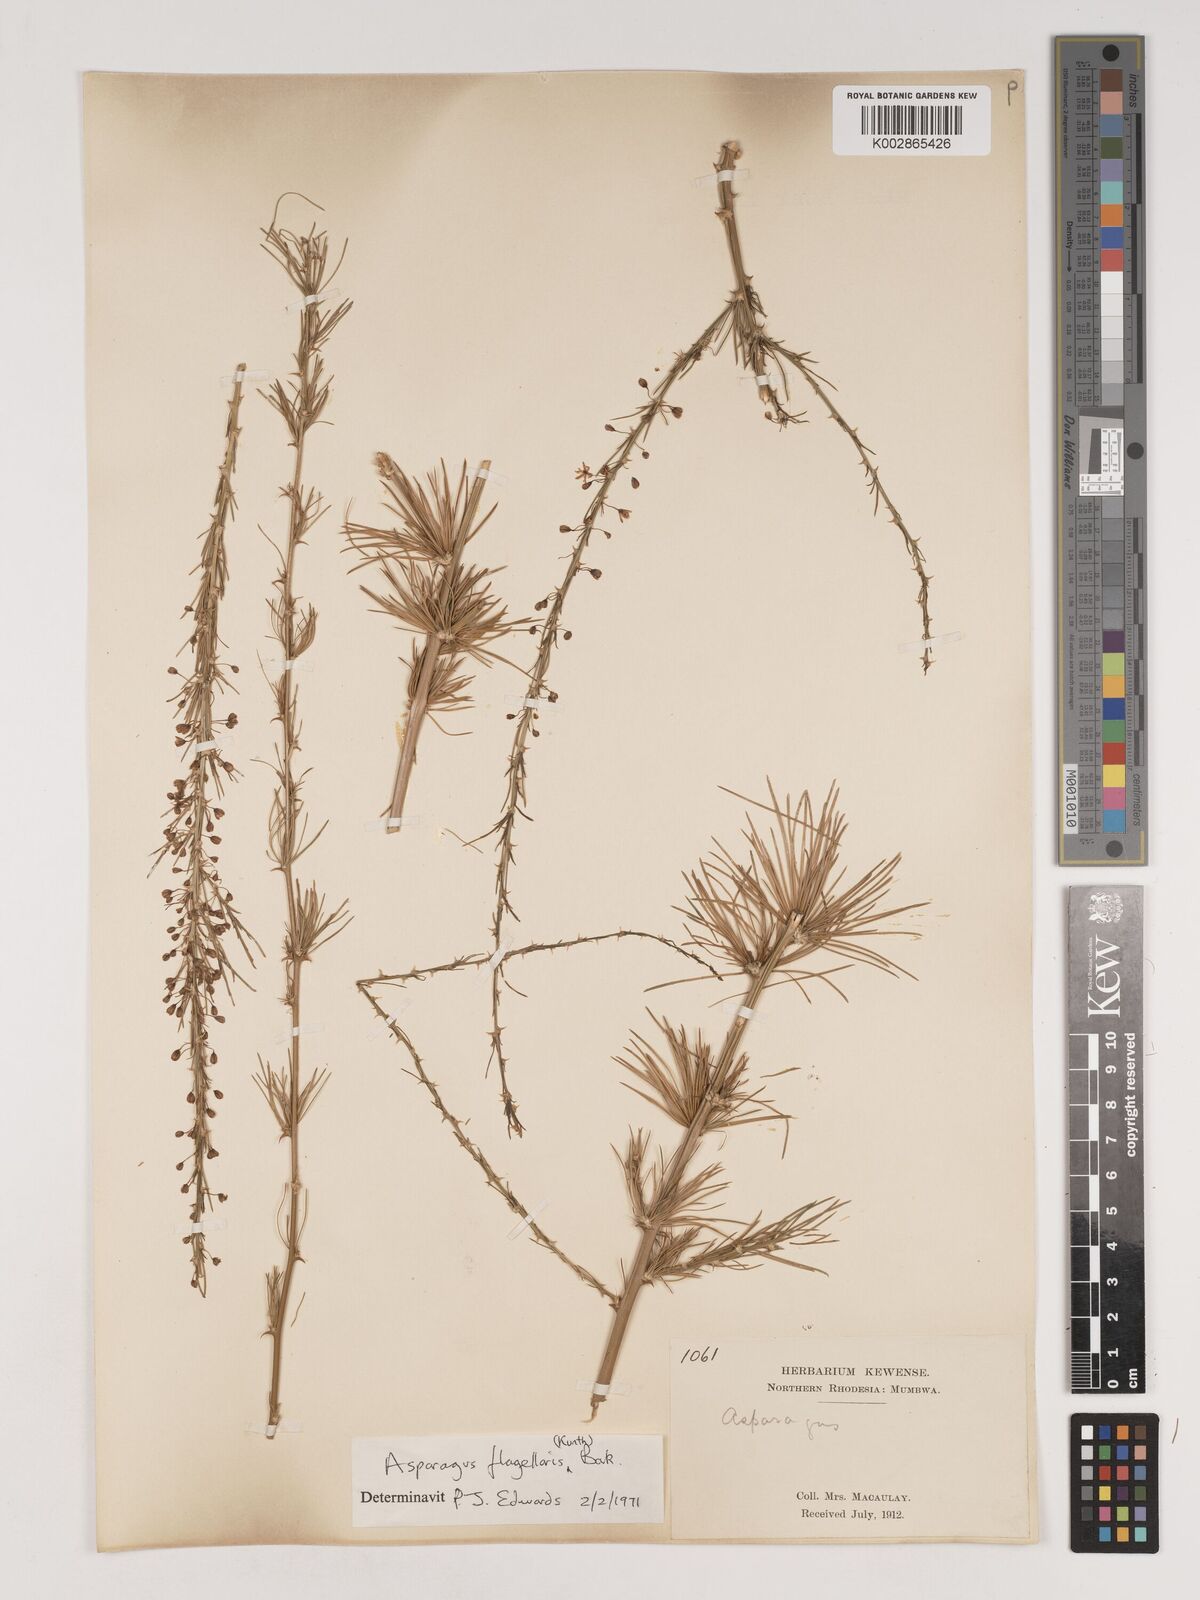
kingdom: Plantae
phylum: Tracheophyta
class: Liliopsida
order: Asparagales
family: Asparagaceae
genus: Asparagus
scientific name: Asparagus flagellaris
